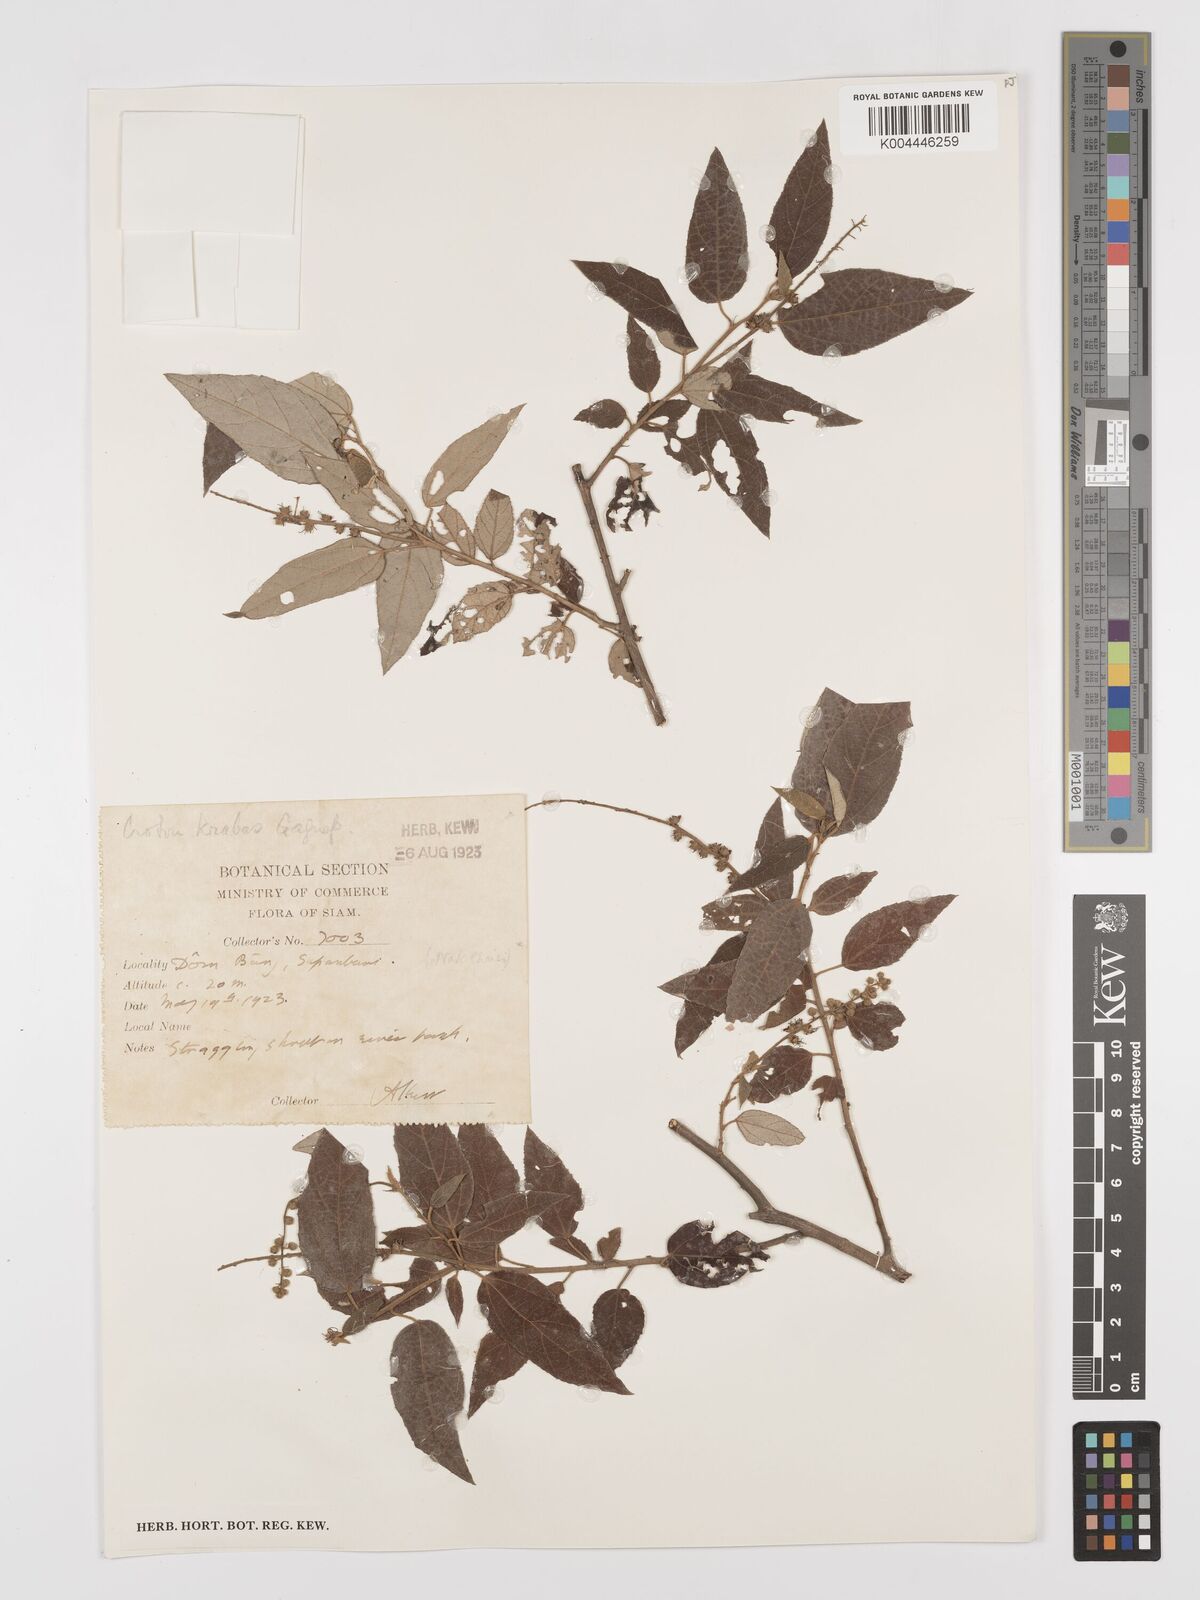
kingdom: Plantae
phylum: Tracheophyta
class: Magnoliopsida
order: Malpighiales
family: Euphorbiaceae
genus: Croton
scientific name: Croton krabas
